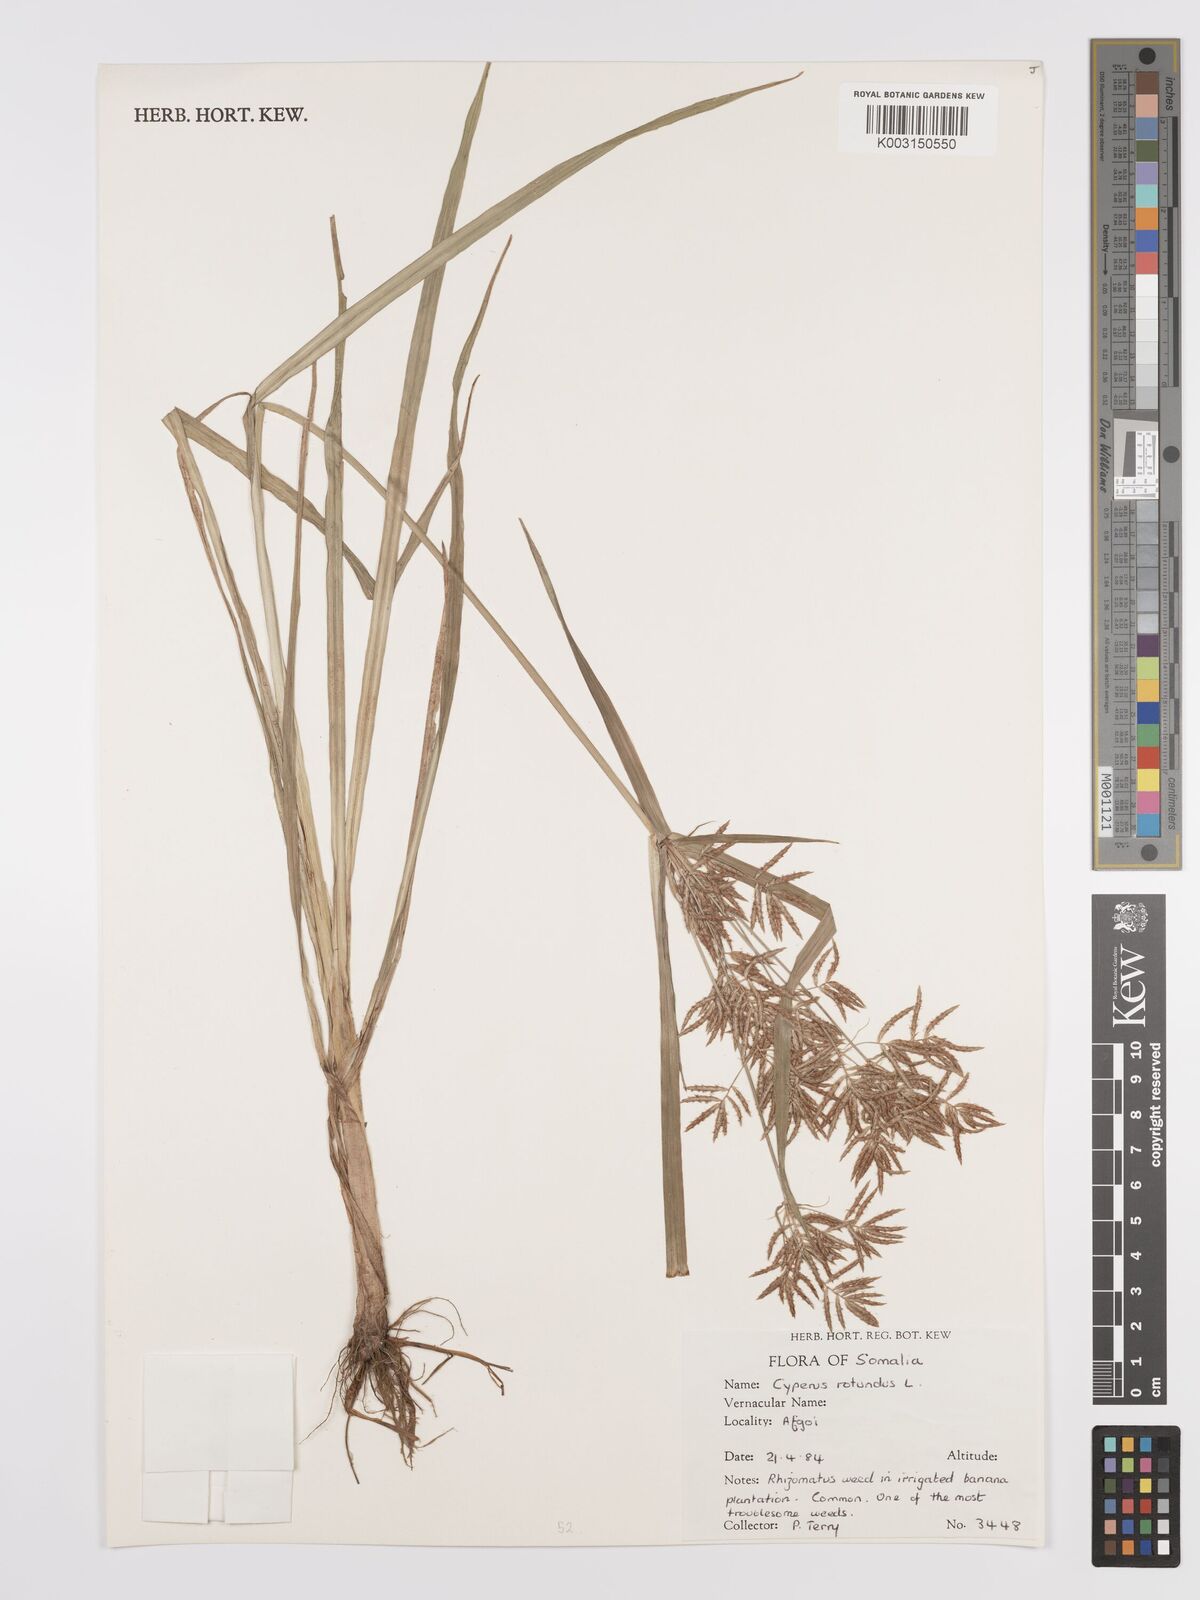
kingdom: Plantae
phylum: Tracheophyta
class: Liliopsida
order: Poales
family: Cyperaceae
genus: Cyperus
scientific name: Cyperus tuberosus
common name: Nut grass
